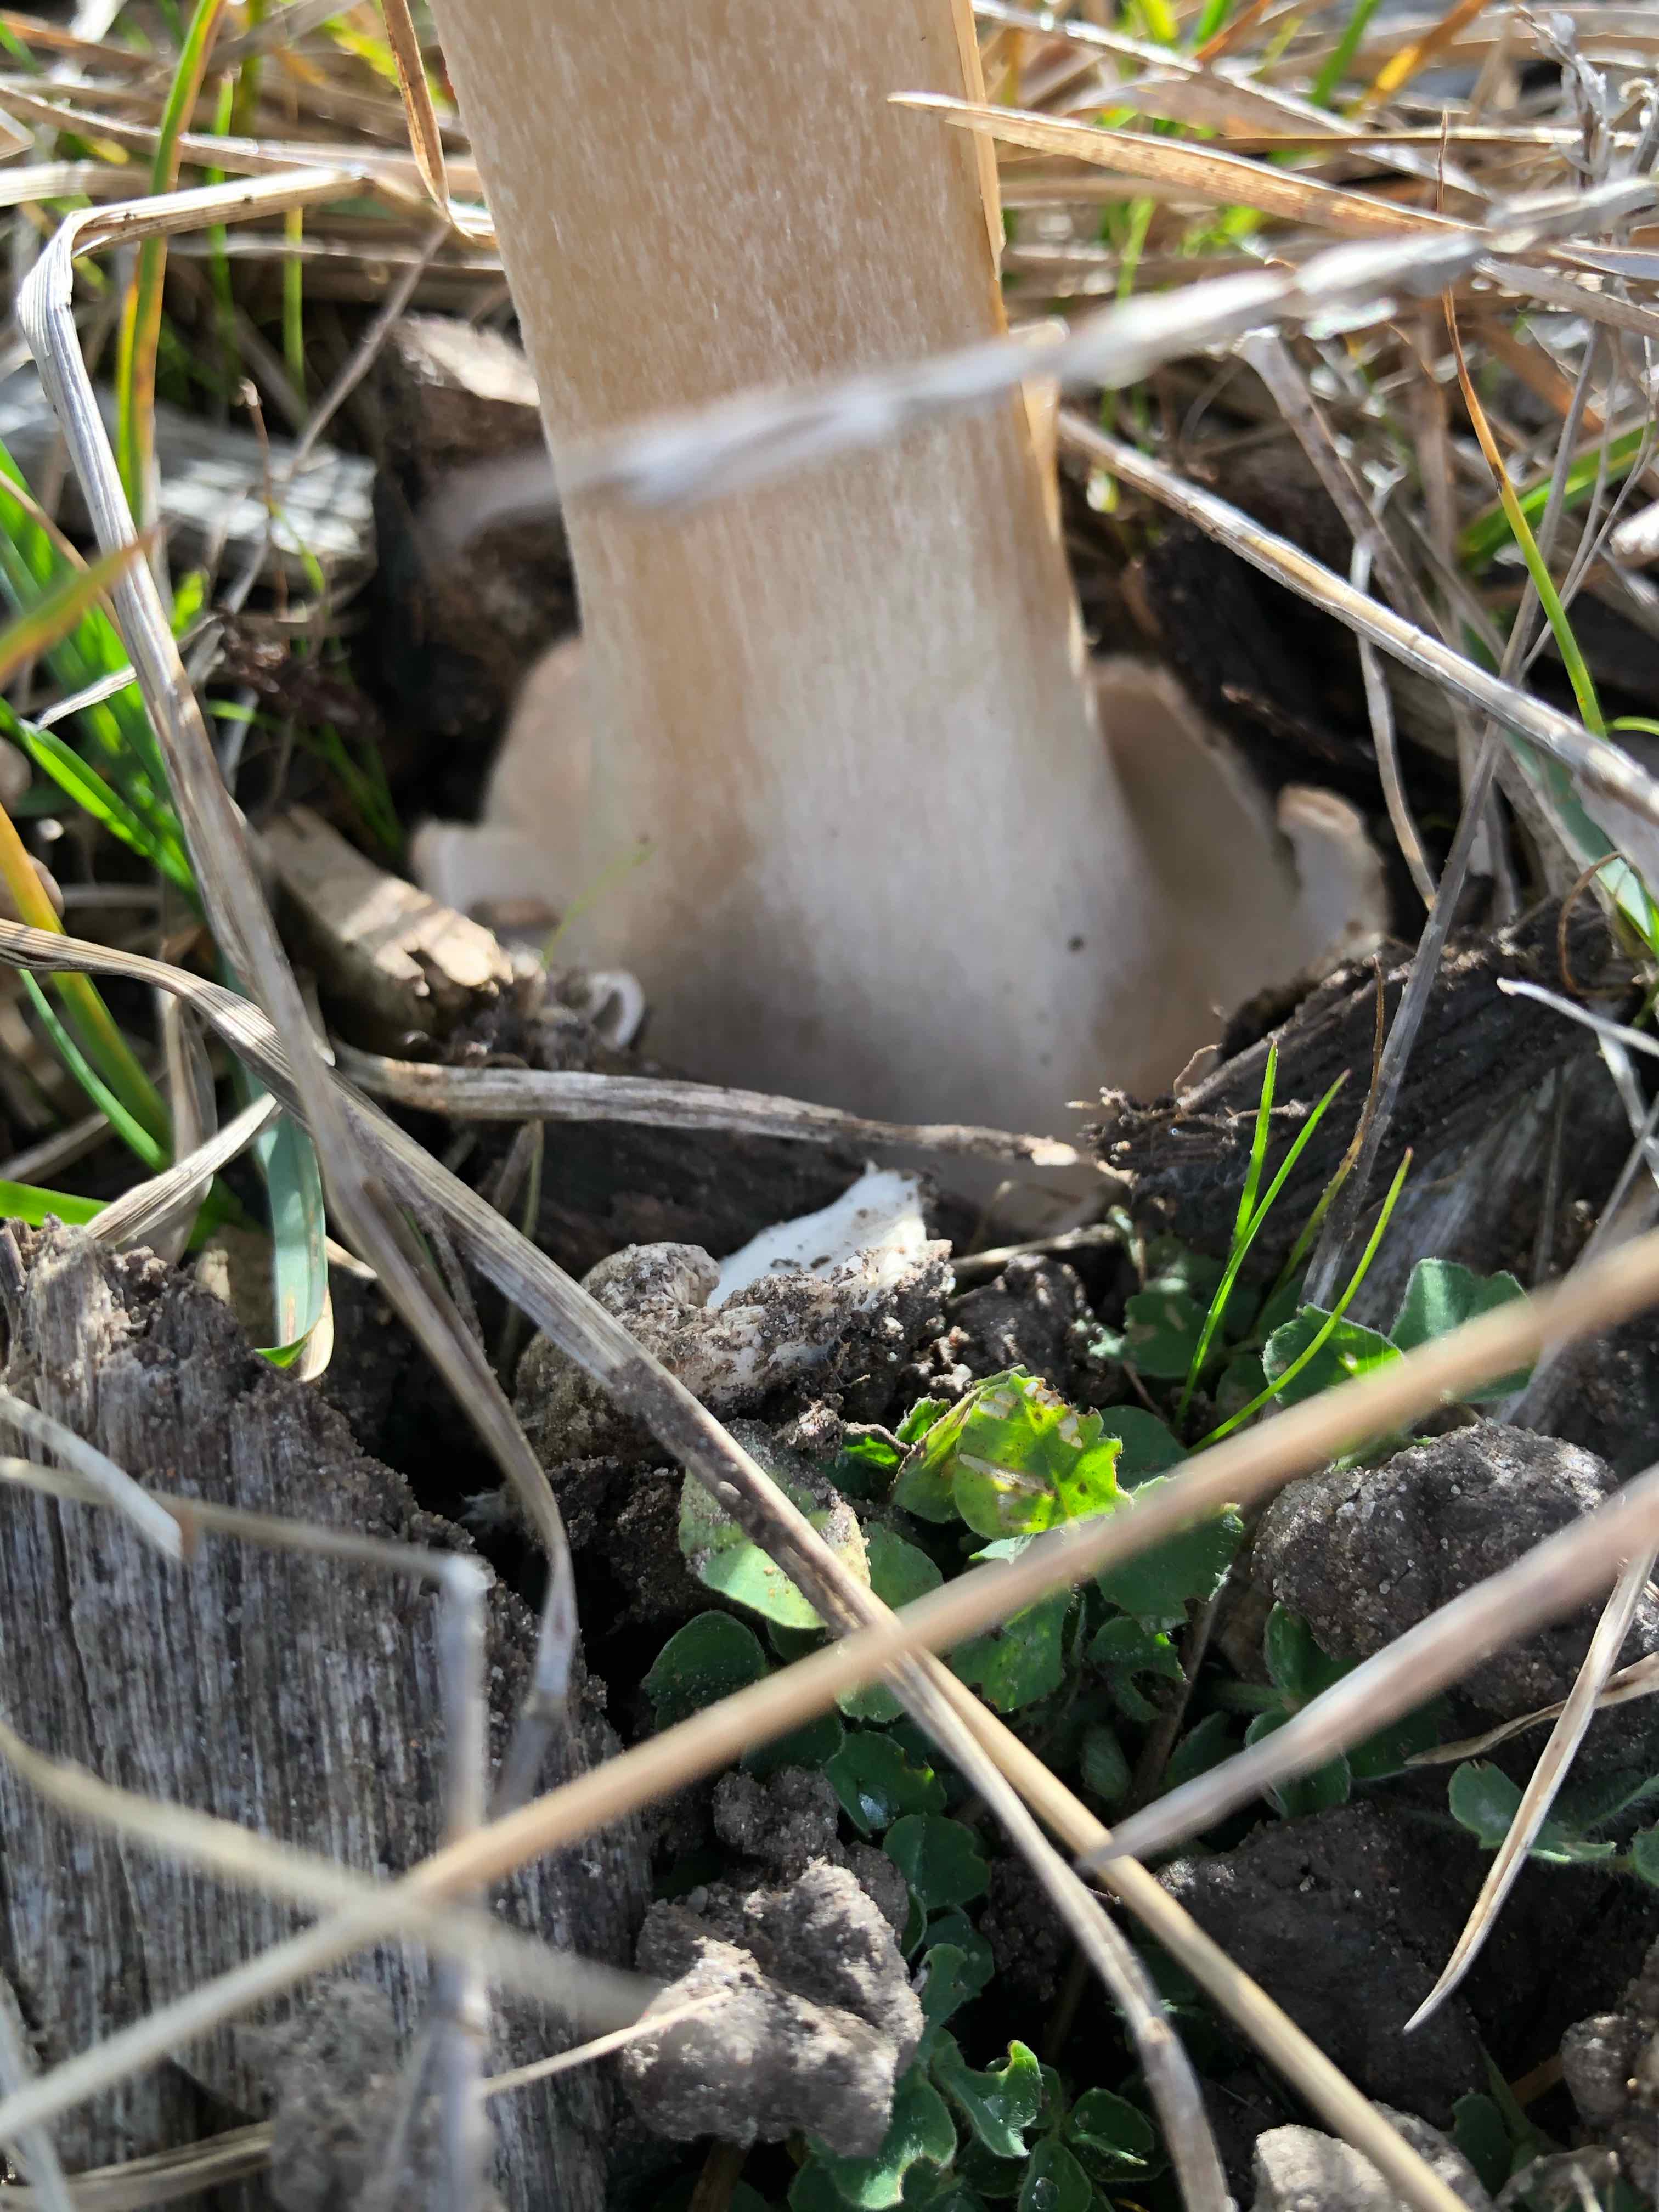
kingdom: Fungi
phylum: Basidiomycota
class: Agaricomycetes
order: Agaricales
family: Pluteaceae
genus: Volvopluteus
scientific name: Volvopluteus gloiocephalus
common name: høj posesvamp
